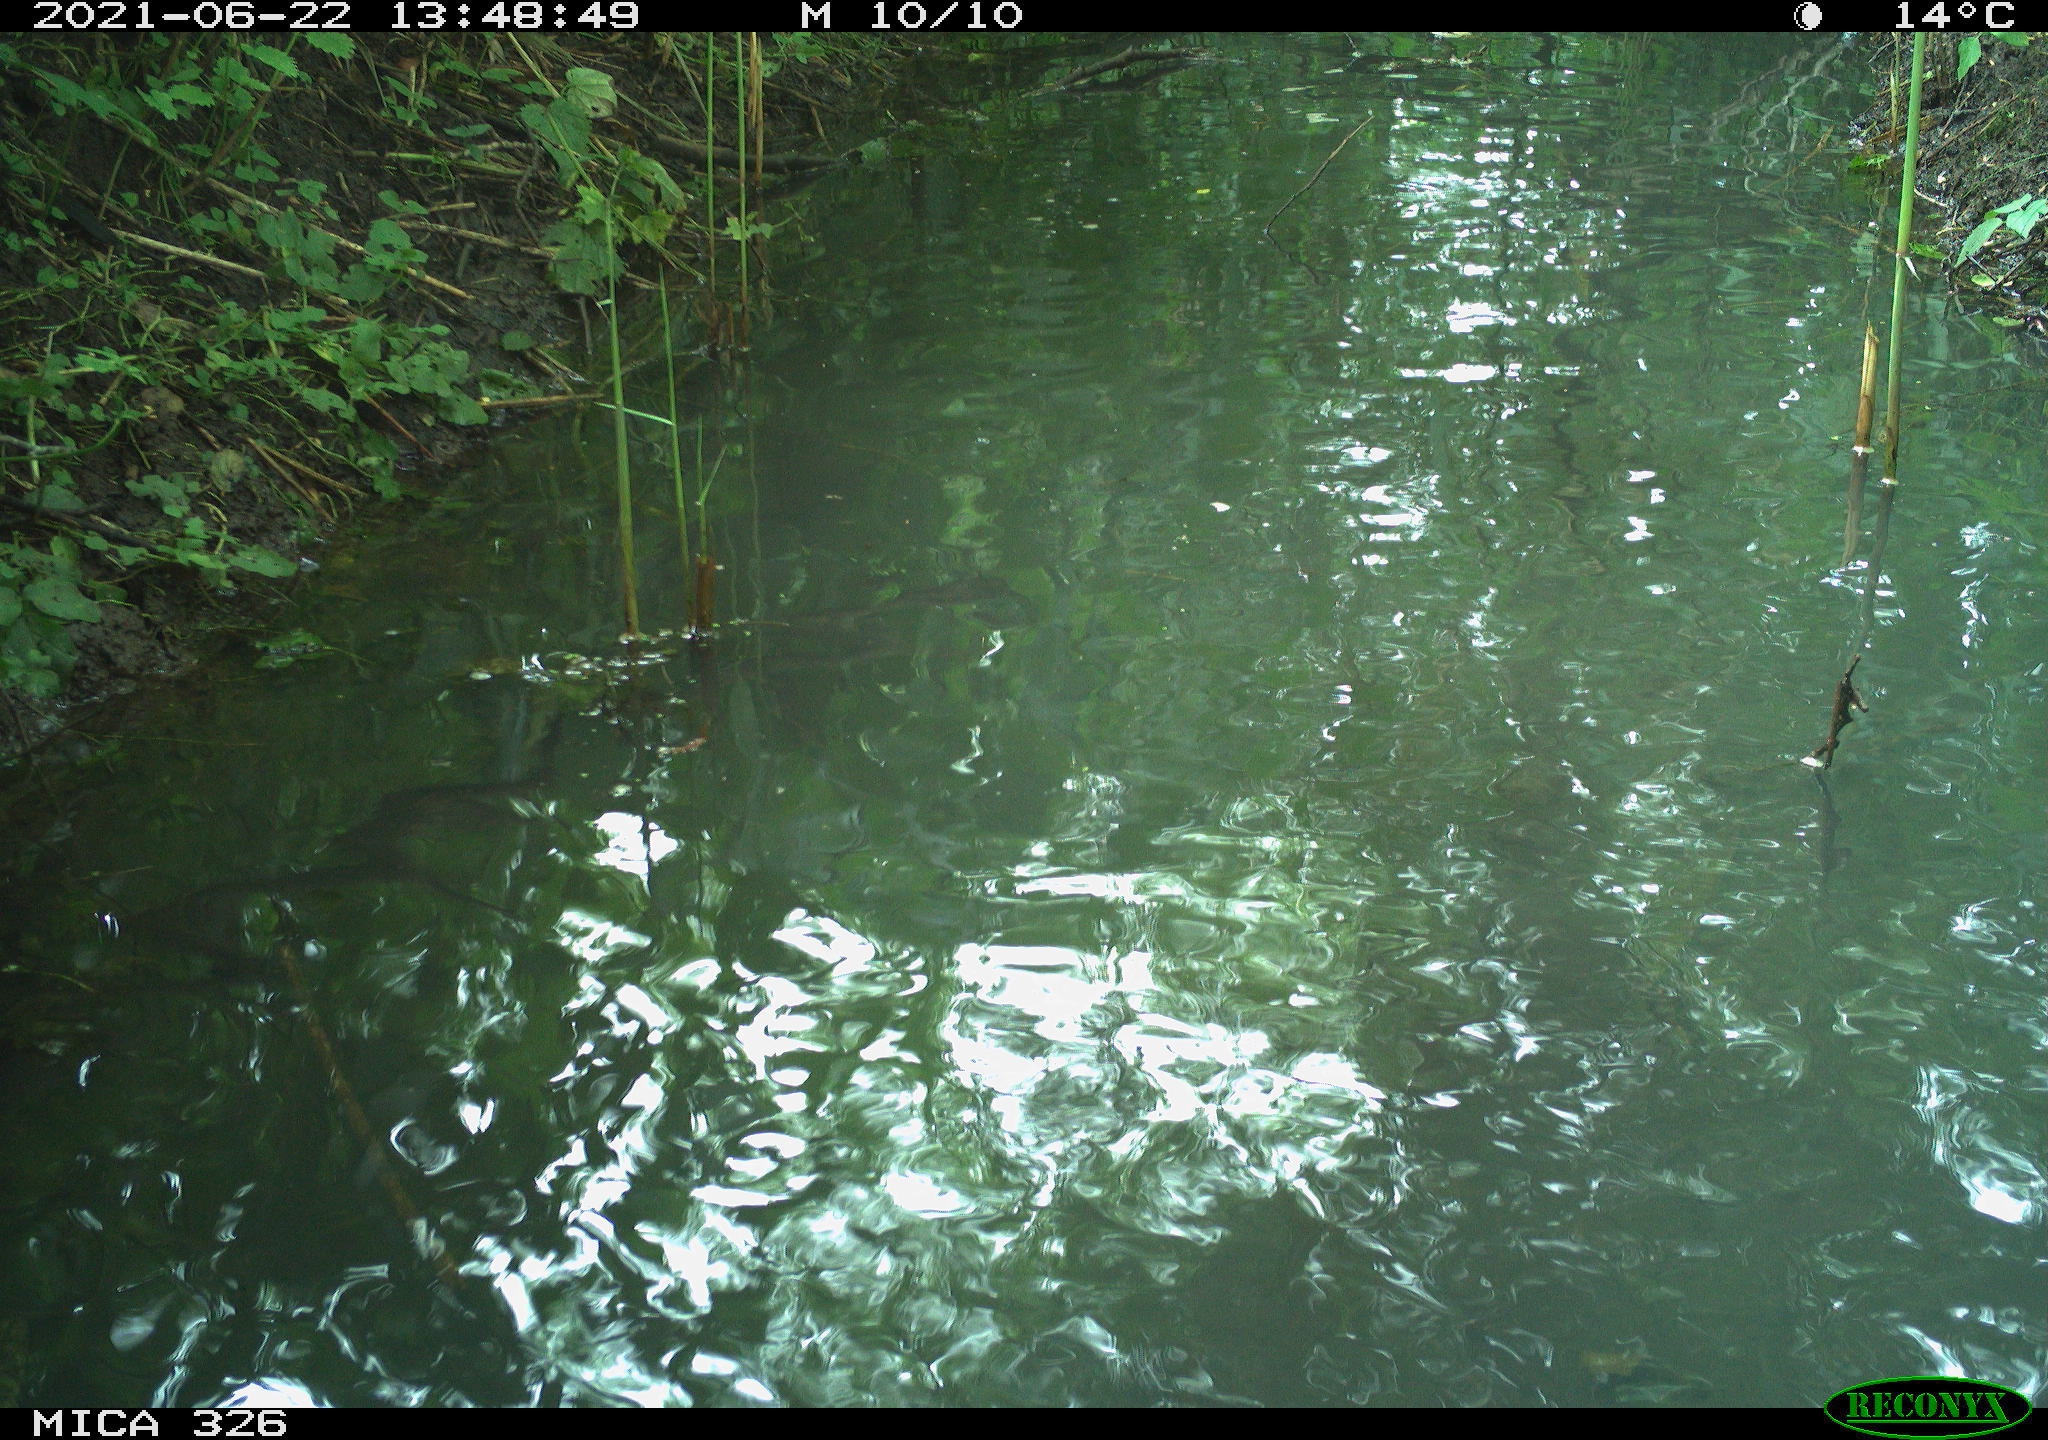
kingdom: Animalia
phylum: Chordata
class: Aves
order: Anseriformes
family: Anatidae
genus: Anas
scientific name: Anas platyrhynchos
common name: Mallard
